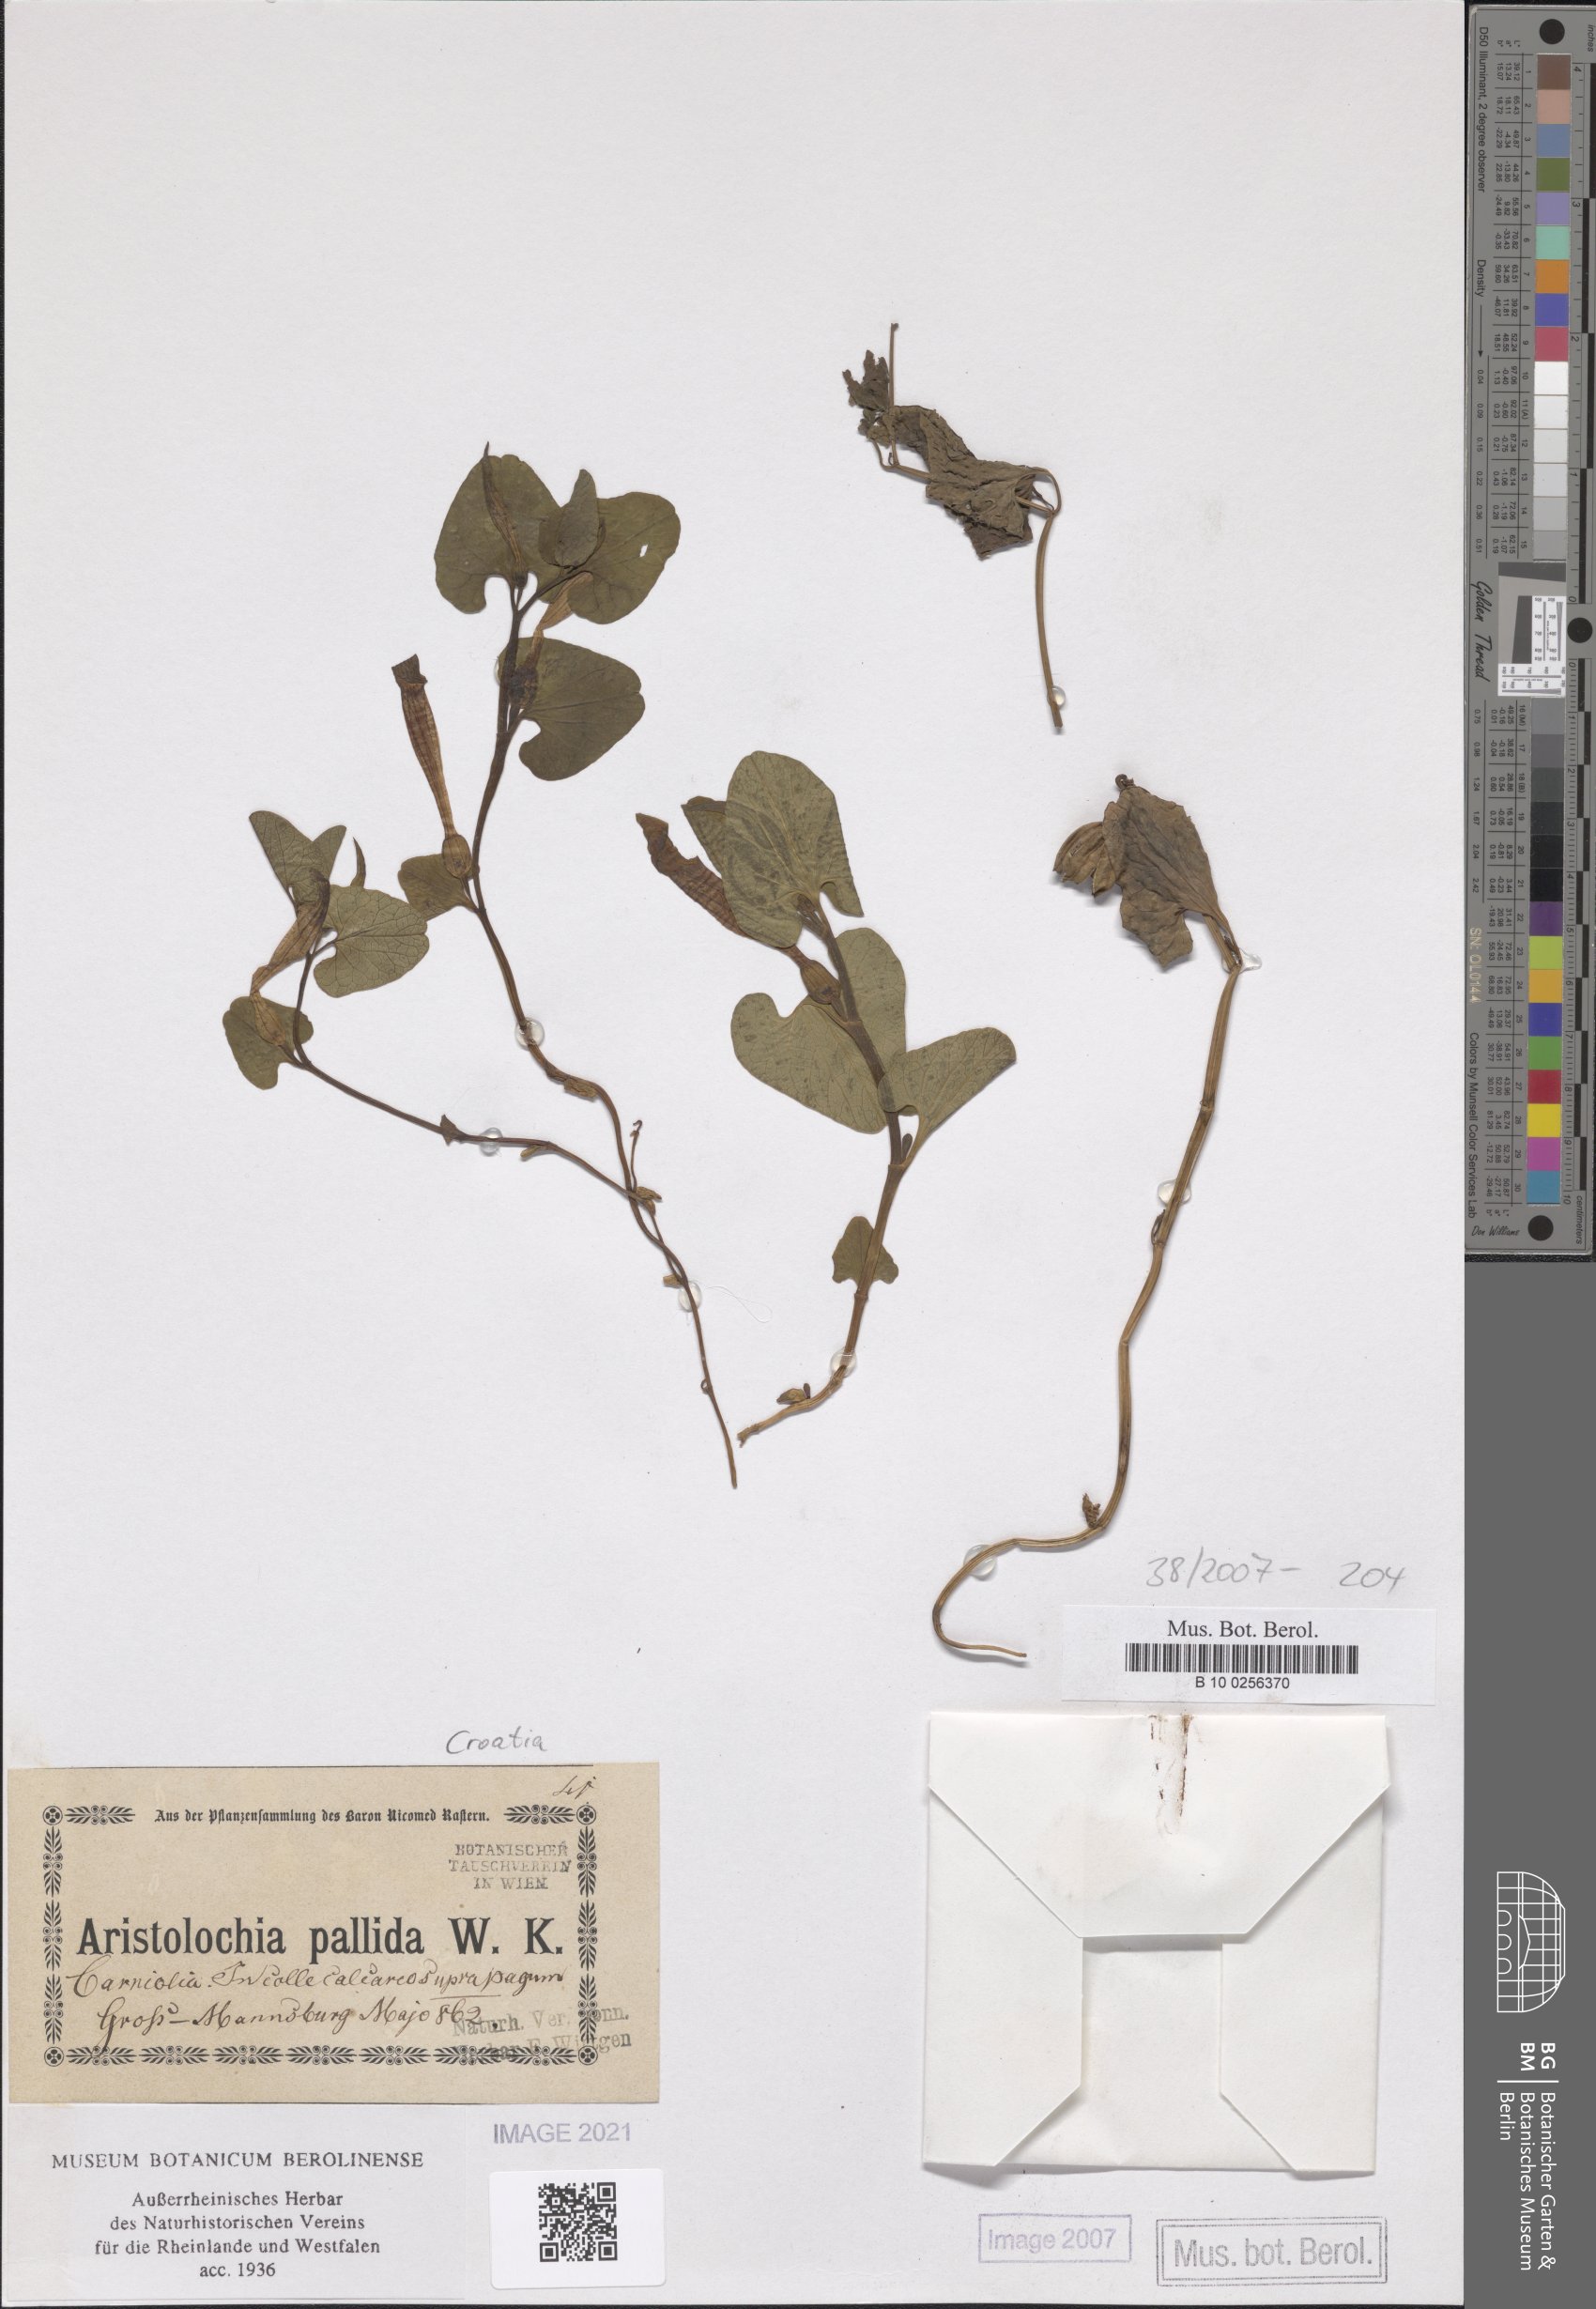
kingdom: Plantae
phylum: Tracheophyta
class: Magnoliopsida
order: Piperales
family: Aristolochiaceae
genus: Aristolochia
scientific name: Aristolochia pallida
